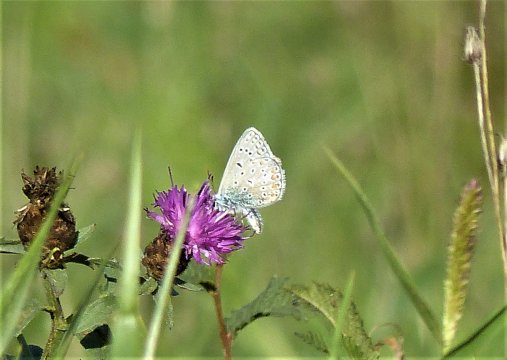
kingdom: Animalia
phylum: Arthropoda
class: Insecta
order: Lepidoptera
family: Lycaenidae
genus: Polyommatus
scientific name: Polyommatus icarus
